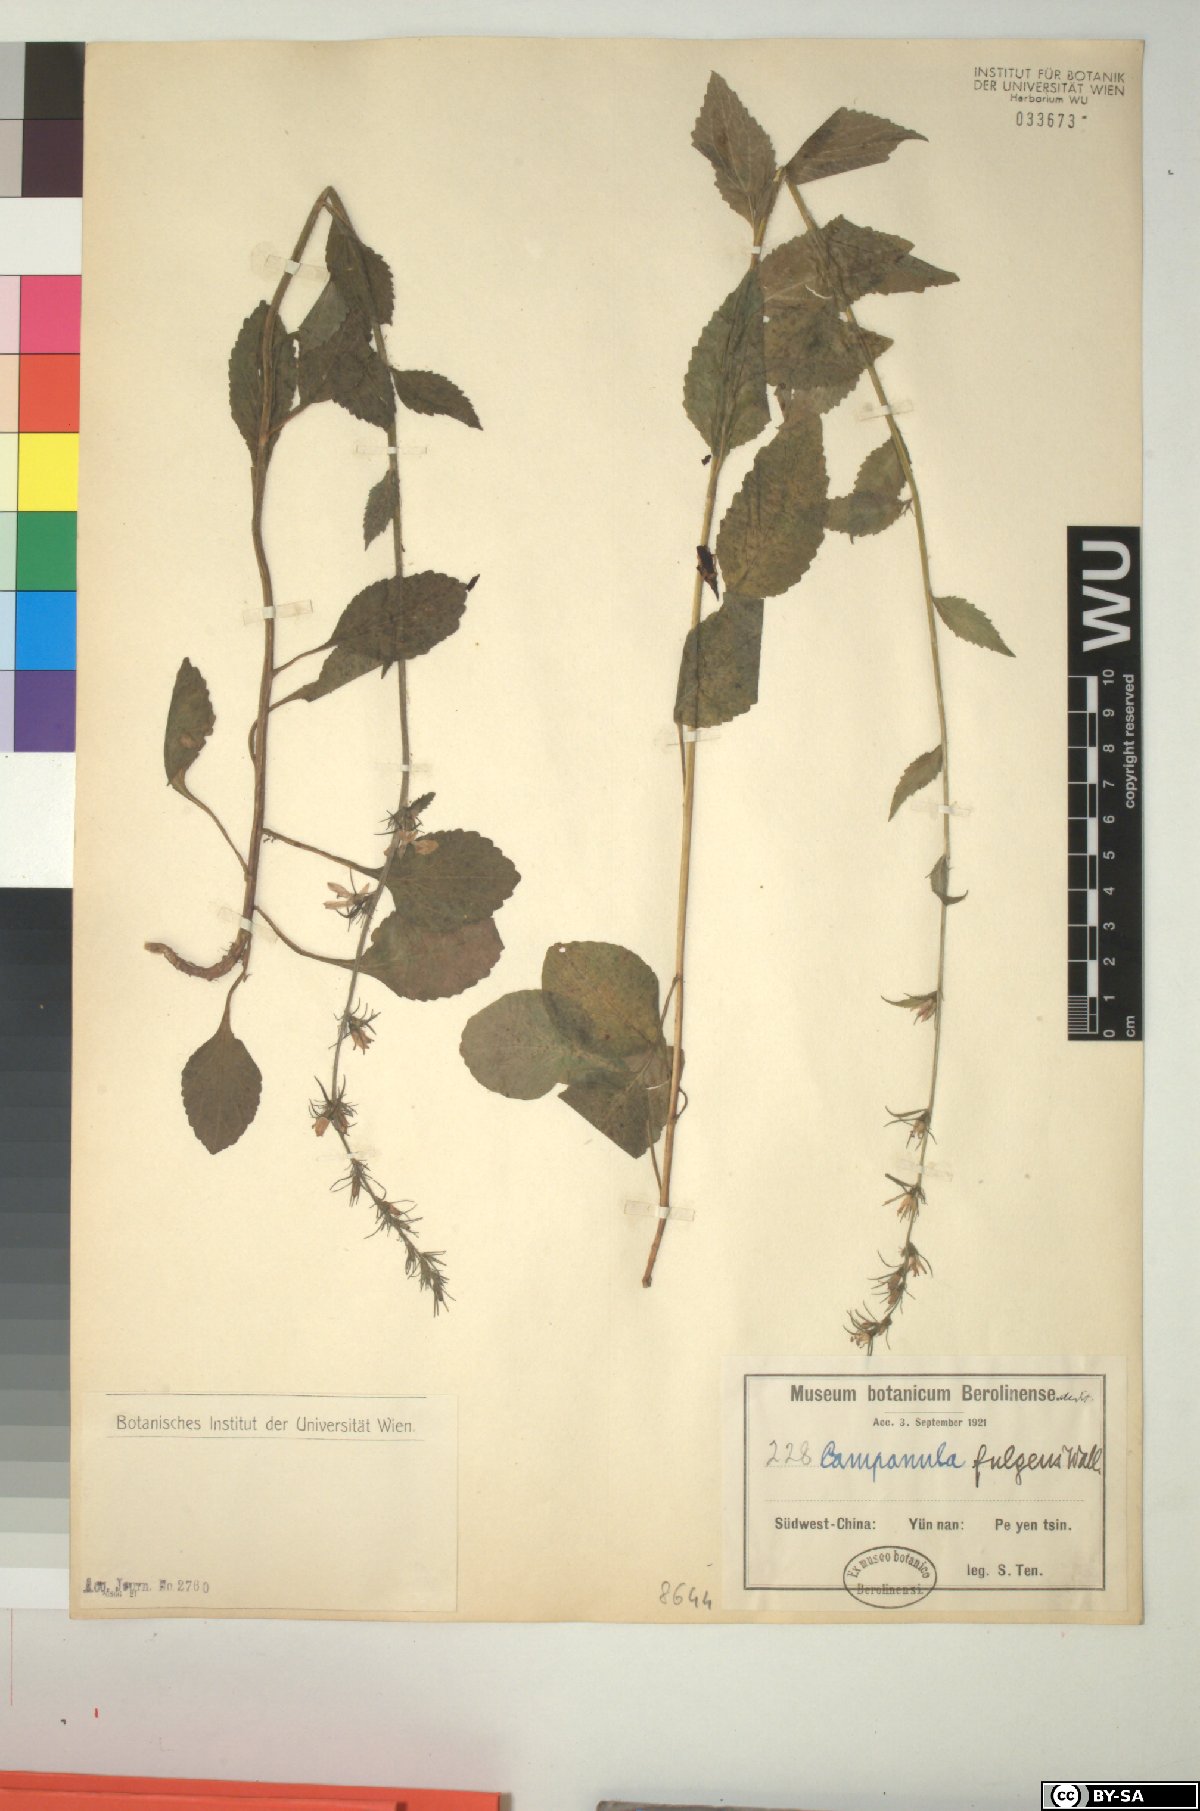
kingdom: Plantae
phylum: Tracheophyta
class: Magnoliopsida
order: Asterales
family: Campanulaceae
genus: Asyneuma
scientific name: Asyneuma fulgens
